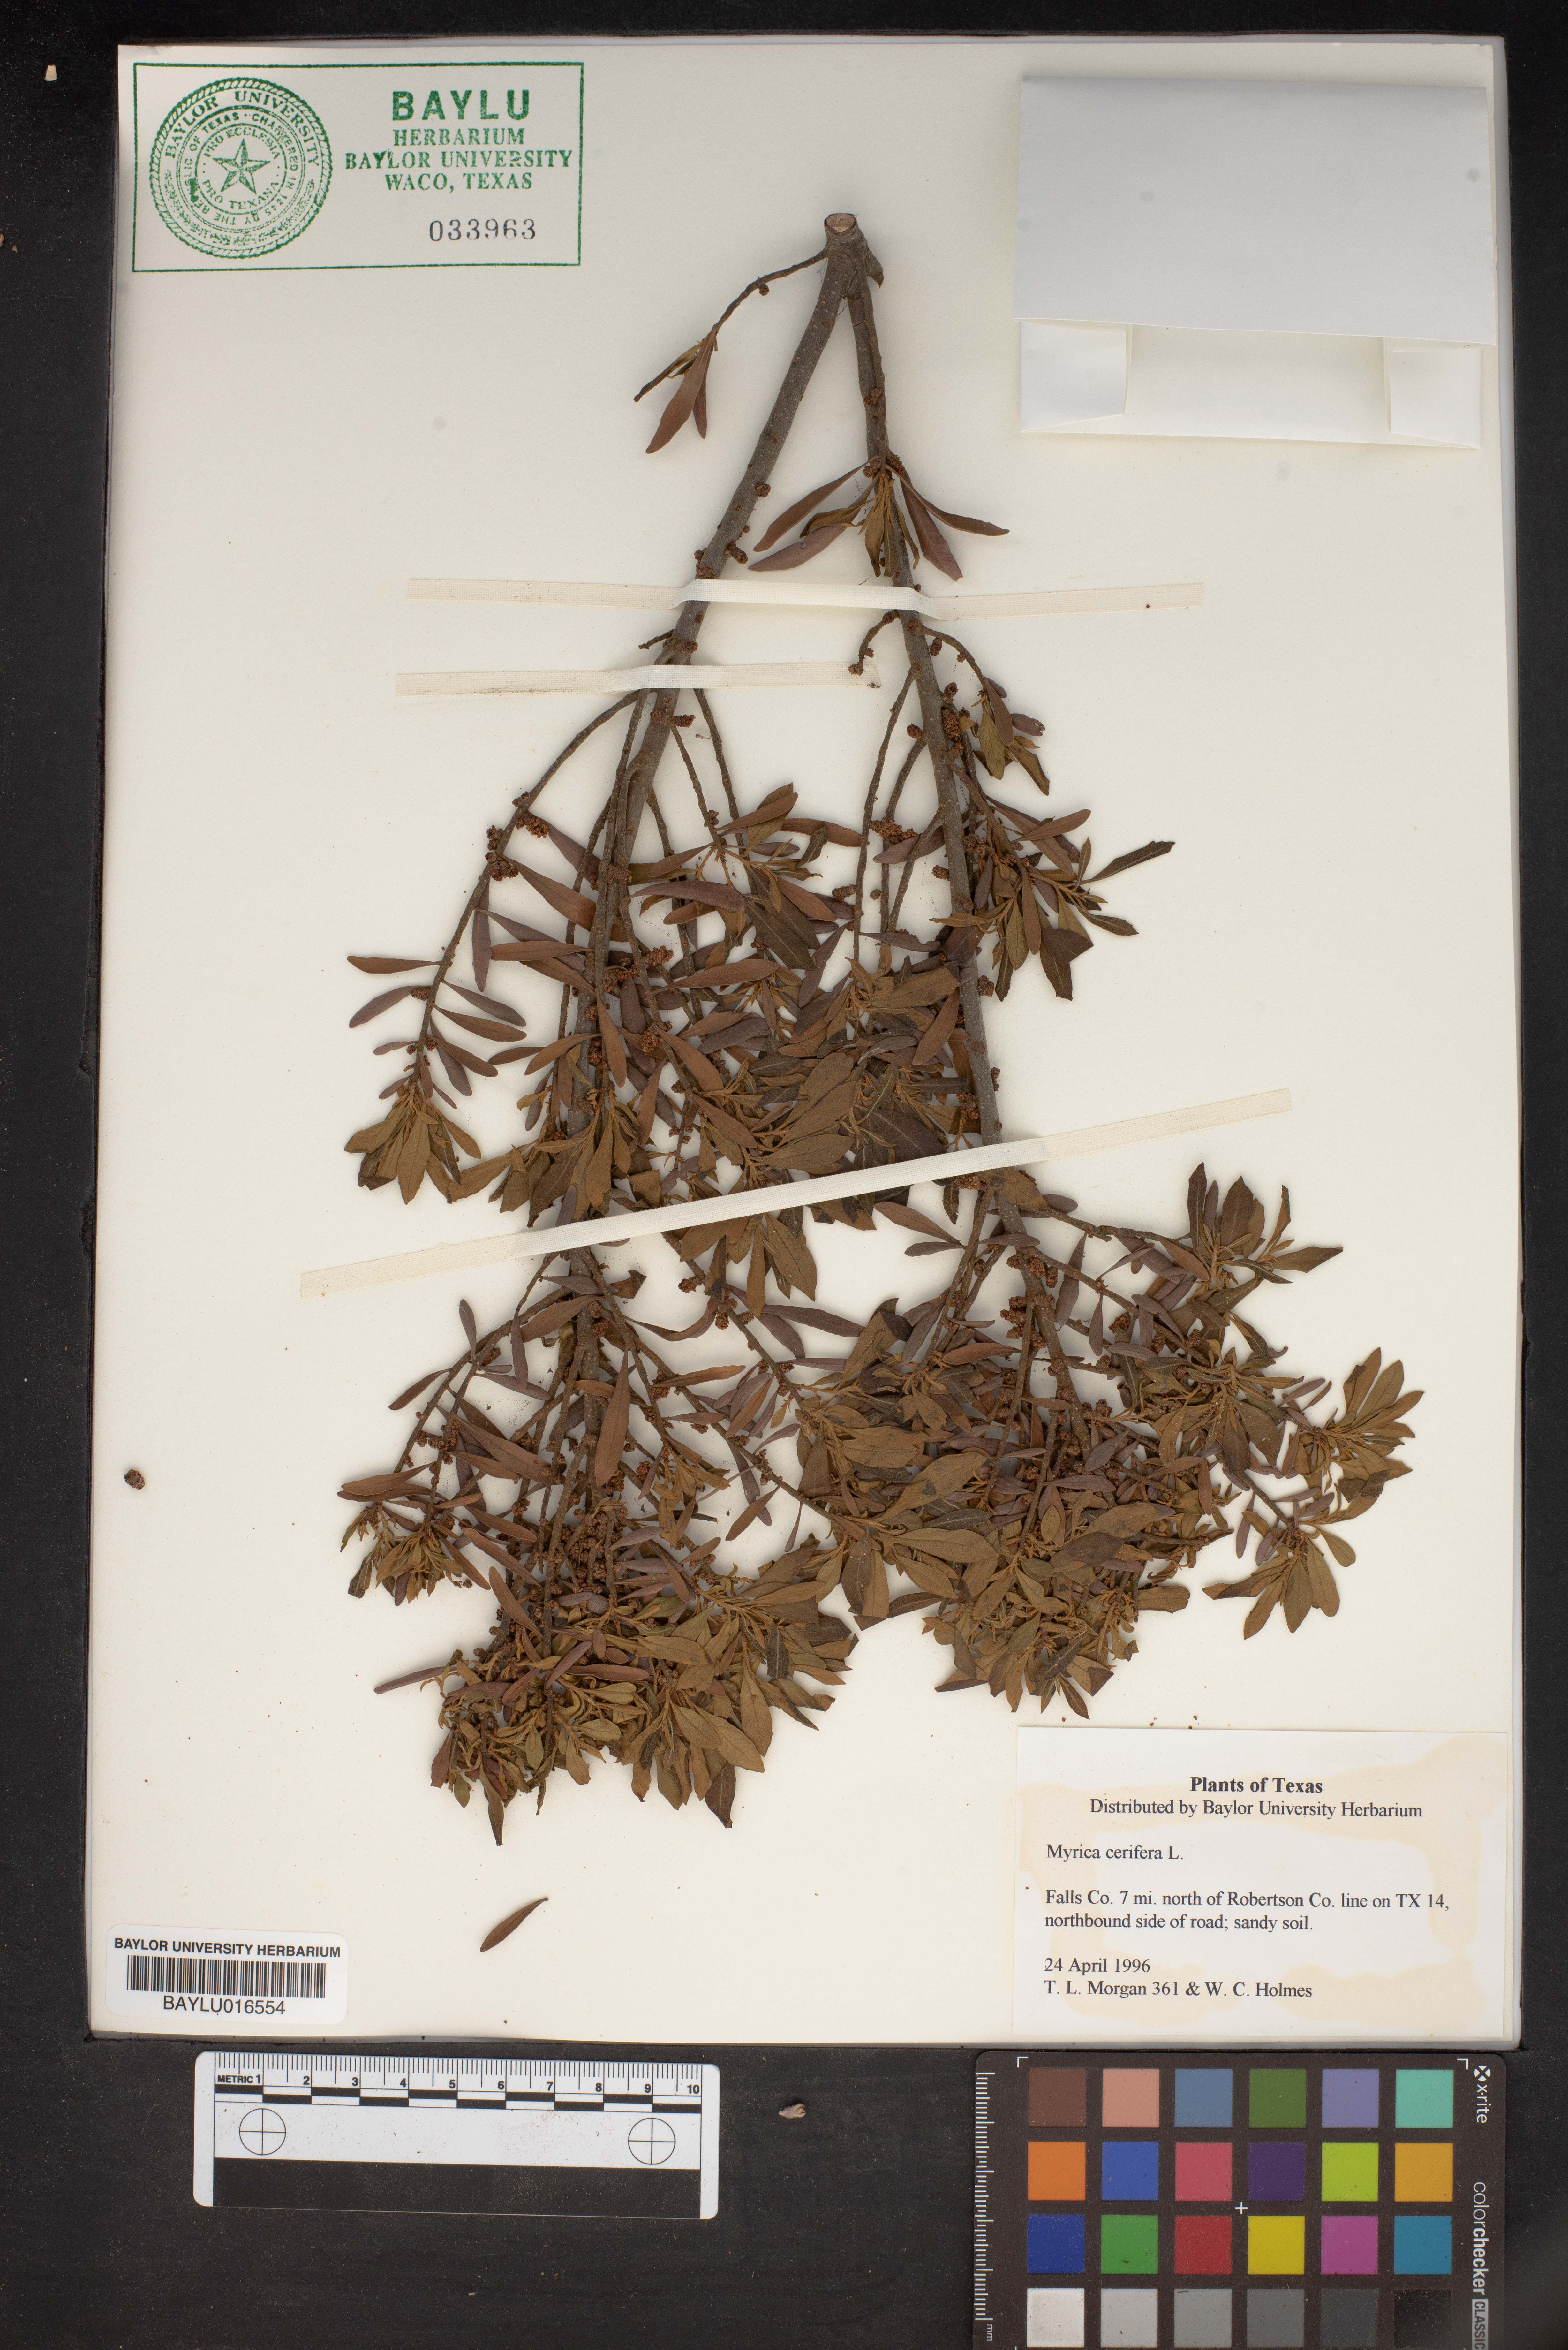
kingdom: Plantae
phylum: Tracheophyta
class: Magnoliopsida
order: Fagales
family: Myricaceae
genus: Morella
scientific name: Morella cerifera
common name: Wax myrtle
